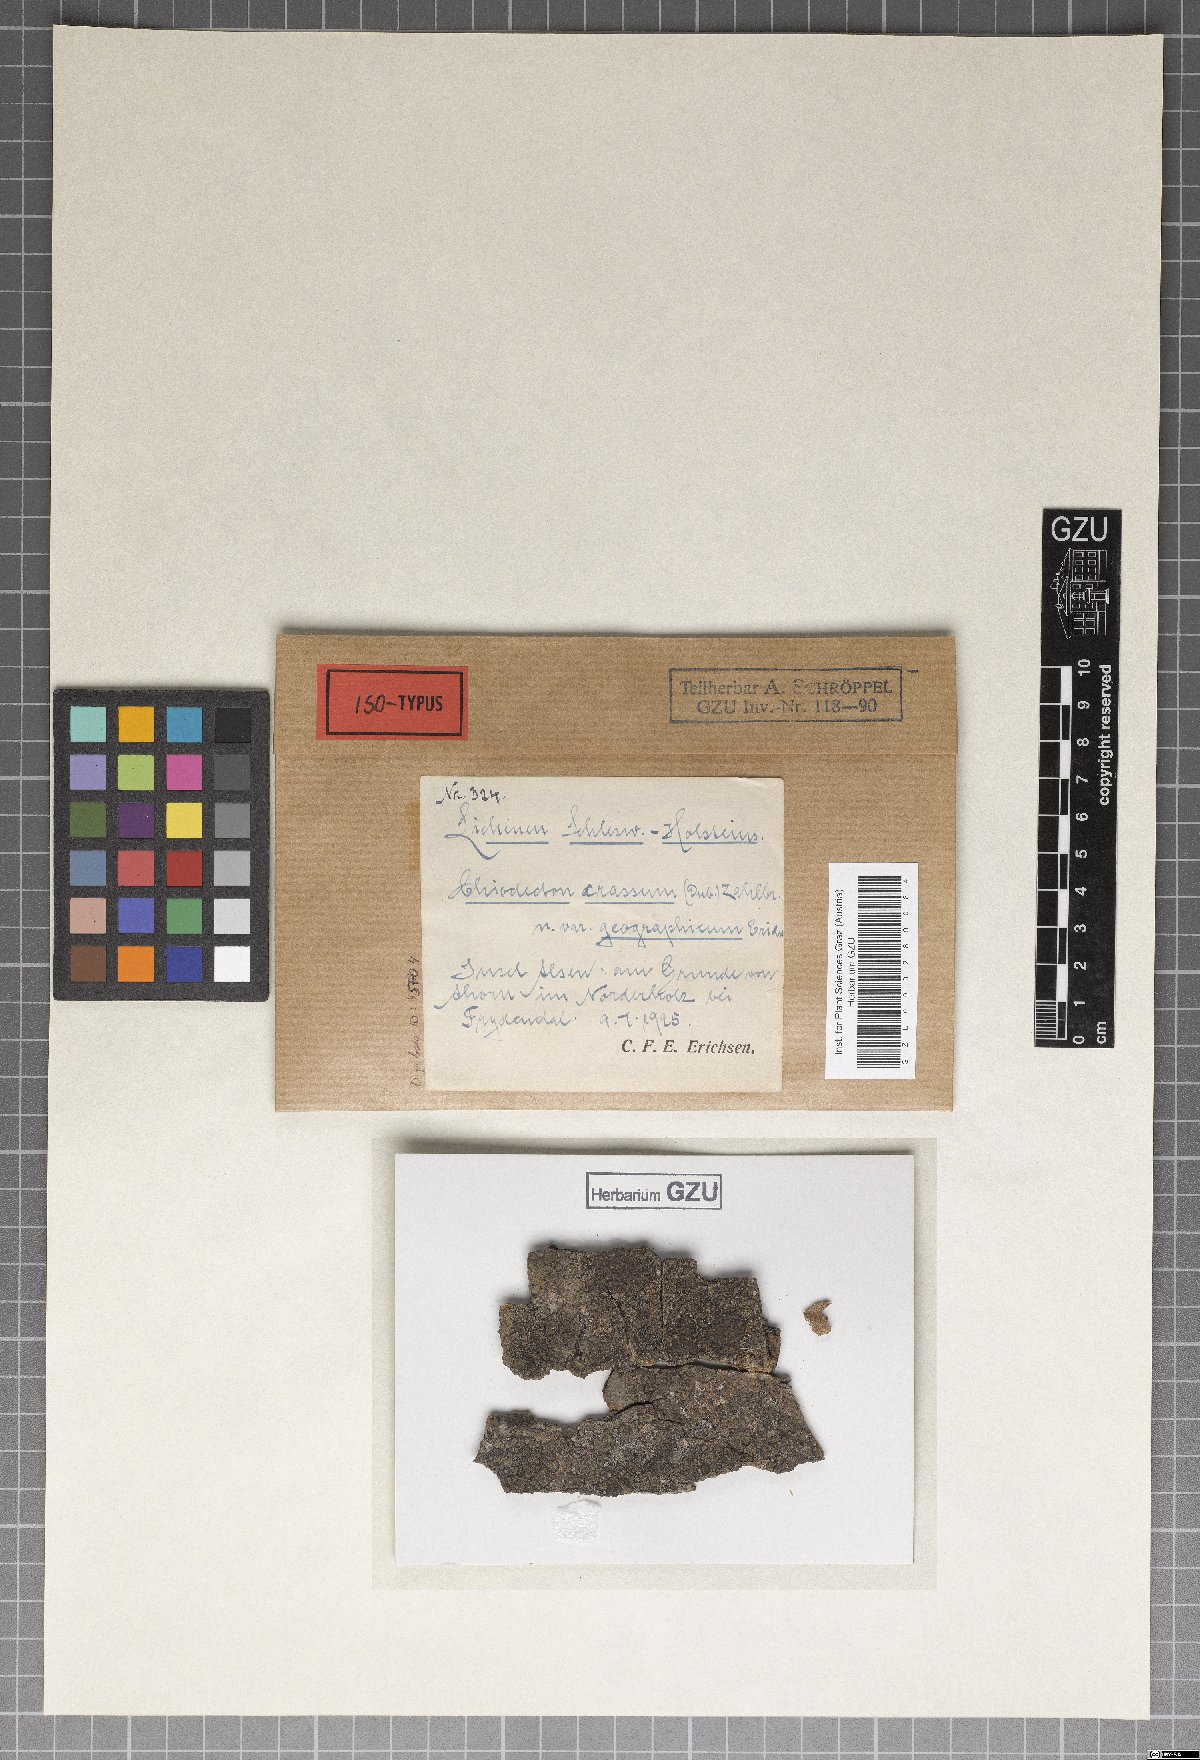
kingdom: Fungi
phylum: Ascomycota
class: Arthoniomycetes
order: Arthoniales
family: Roccellaceae
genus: Enterographa
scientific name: Enterographa crassa
